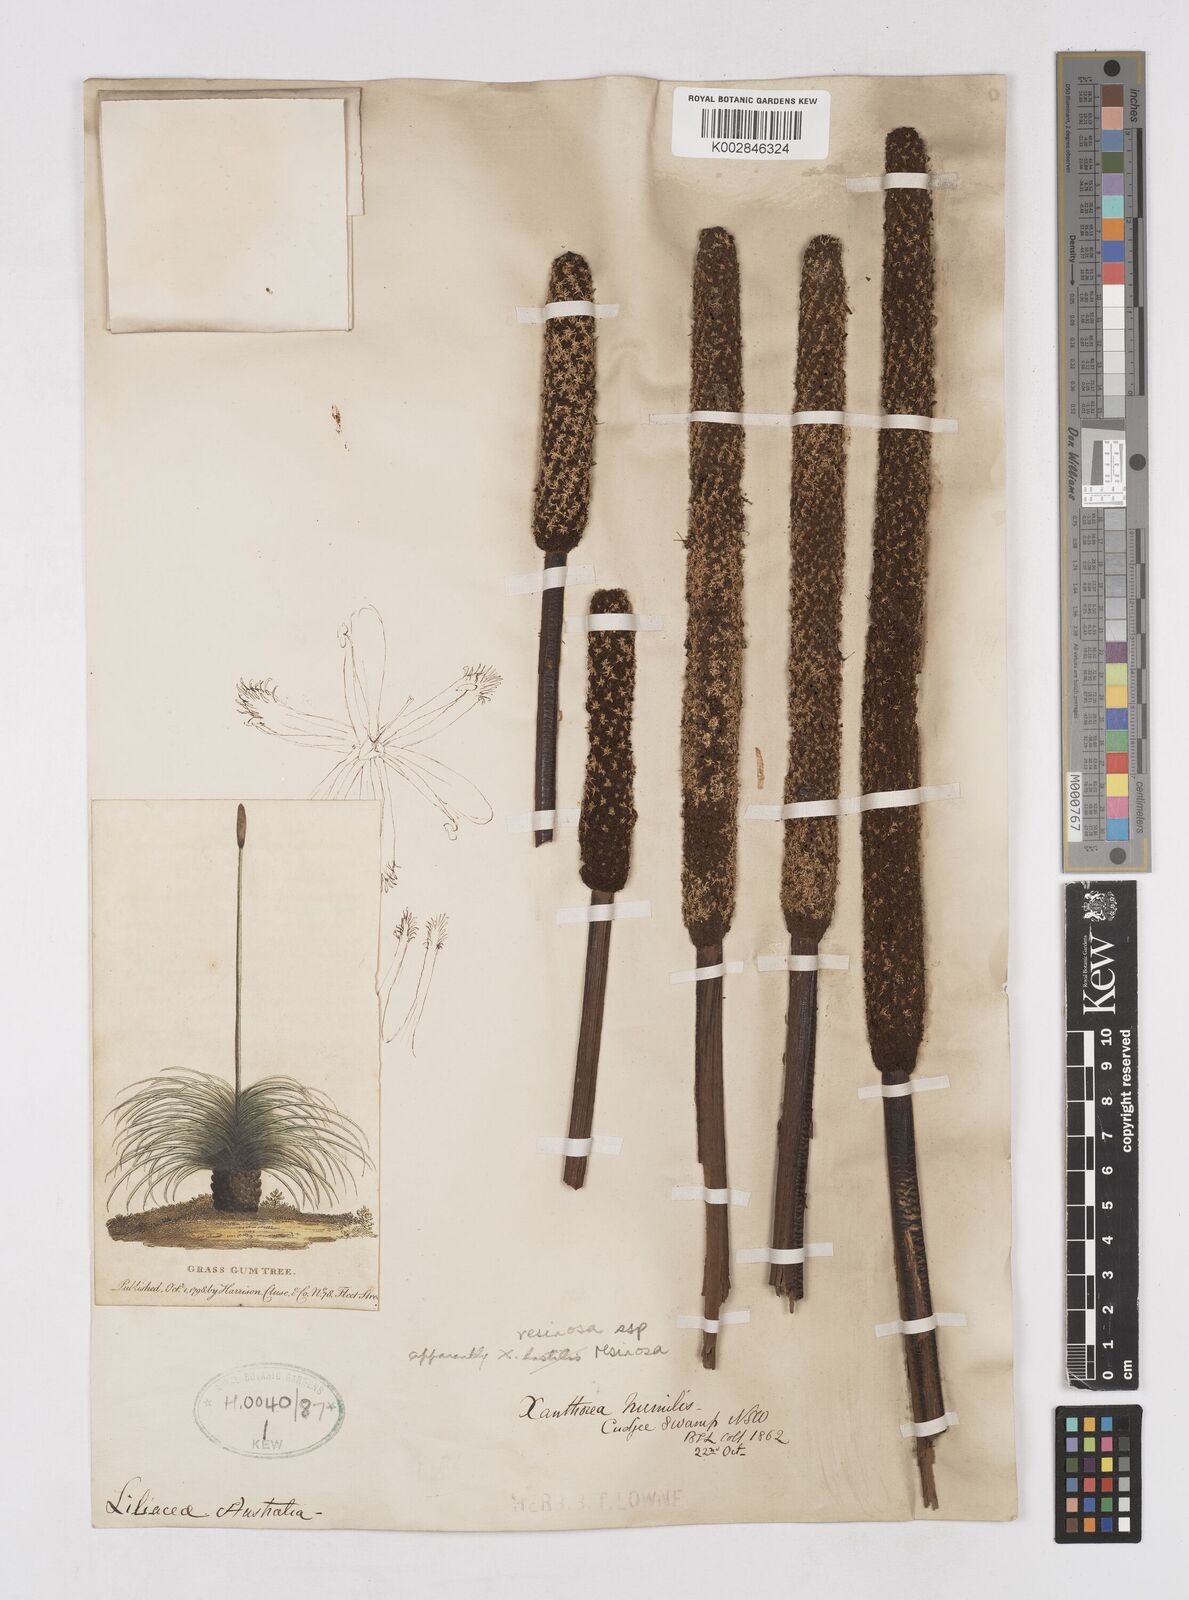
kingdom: Plantae
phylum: Tracheophyta
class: Liliopsida
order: Asparagales
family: Asphodelaceae
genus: Xanthorrhoea
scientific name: Xanthorrhoea
